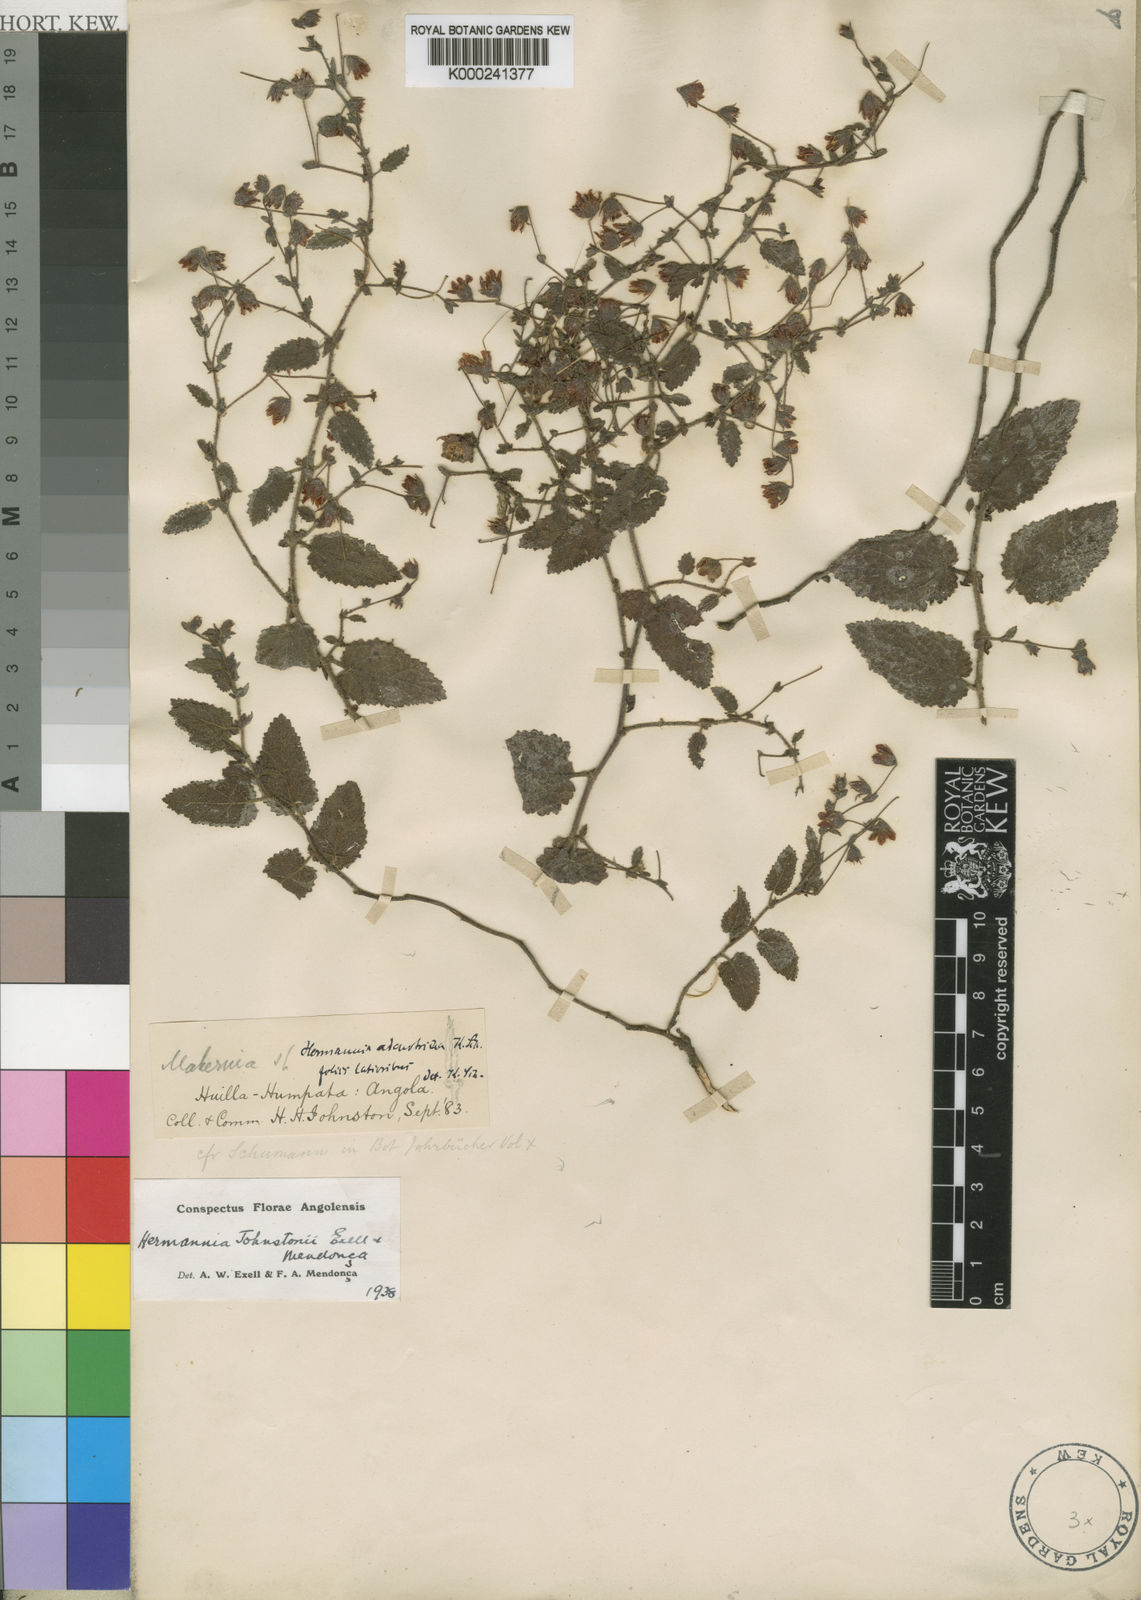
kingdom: Plantae
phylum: Tracheophyta
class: Magnoliopsida
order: Malvales
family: Malvaceae
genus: Hermannia
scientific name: Hermannia
